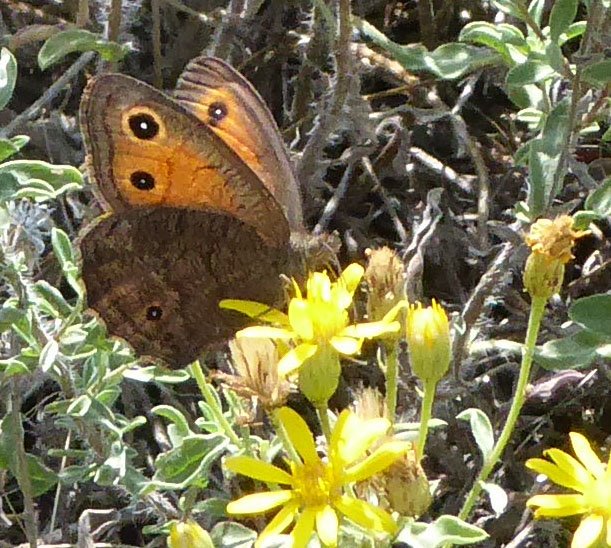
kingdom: Animalia
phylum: Arthropoda
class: Insecta
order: Lepidoptera
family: Nymphalidae
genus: Cercyonis
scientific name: Cercyonis meadi
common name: Mead's Wood-Nymph
